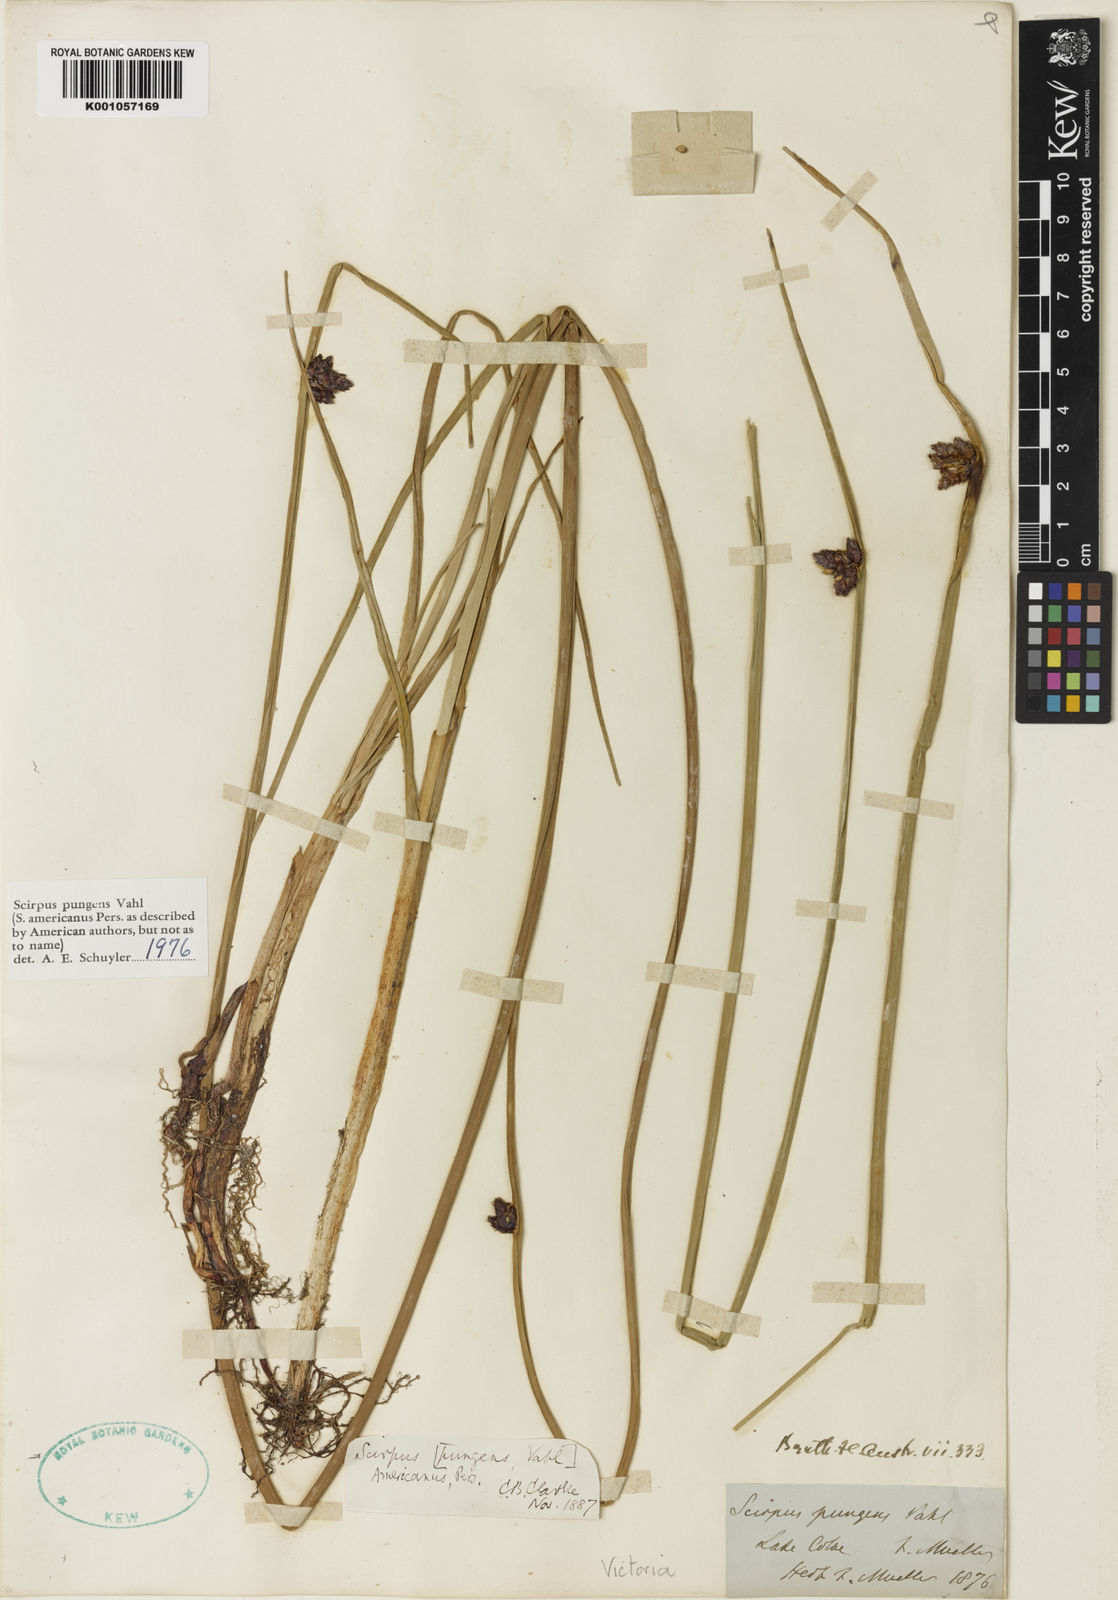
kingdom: Plantae
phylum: Tracheophyta
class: Liliopsida
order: Poales
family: Cyperaceae
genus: Schoenoplectus
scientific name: Schoenoplectus
